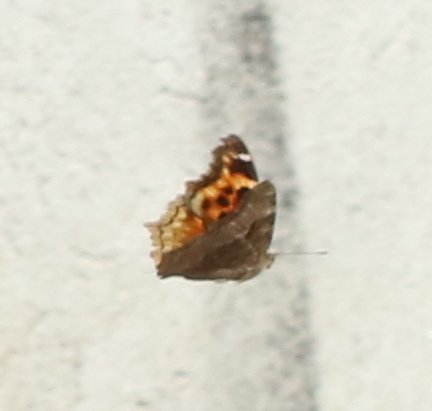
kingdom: Animalia
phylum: Arthropoda
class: Insecta
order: Lepidoptera
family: Nymphalidae
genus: Polygonia
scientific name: Polygonia vaualbum
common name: Compton Tortoiseshell
